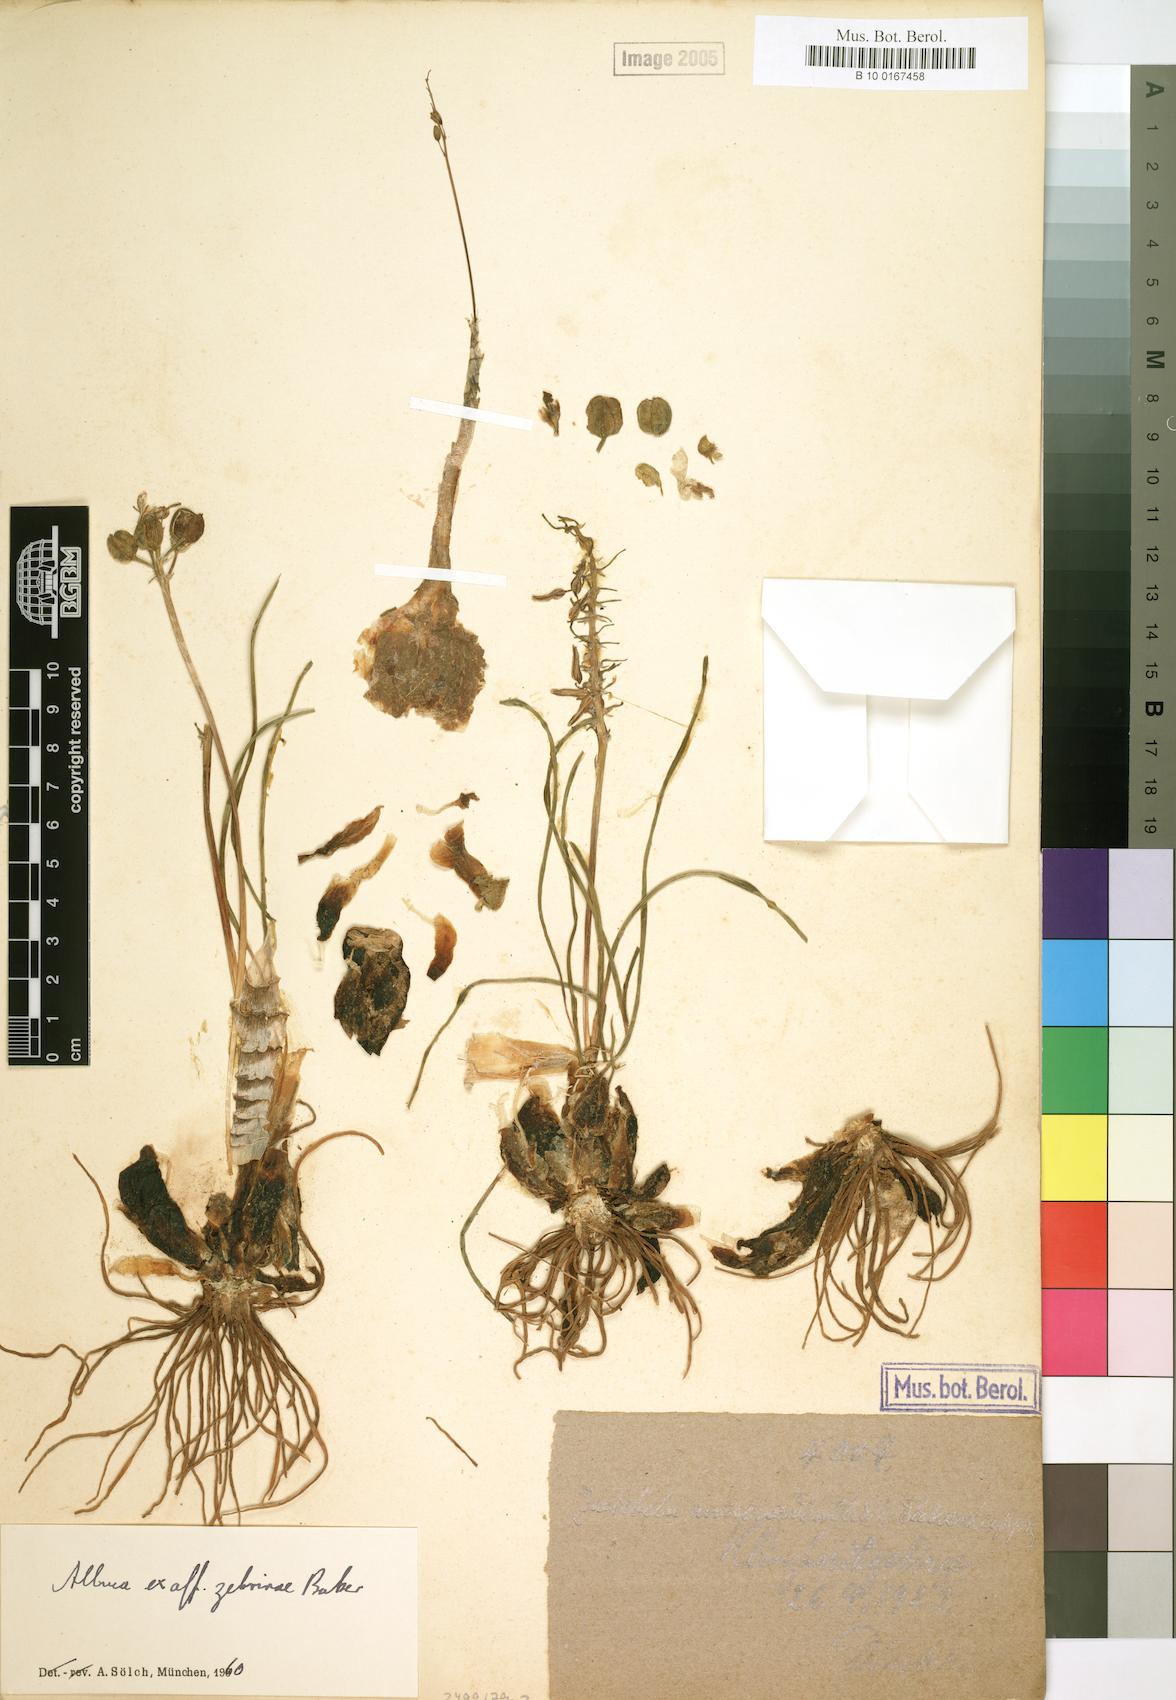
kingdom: Plantae
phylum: Tracheophyta
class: Liliopsida
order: Asparagales
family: Asparagaceae
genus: Albuca
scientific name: Albuca zebrina
